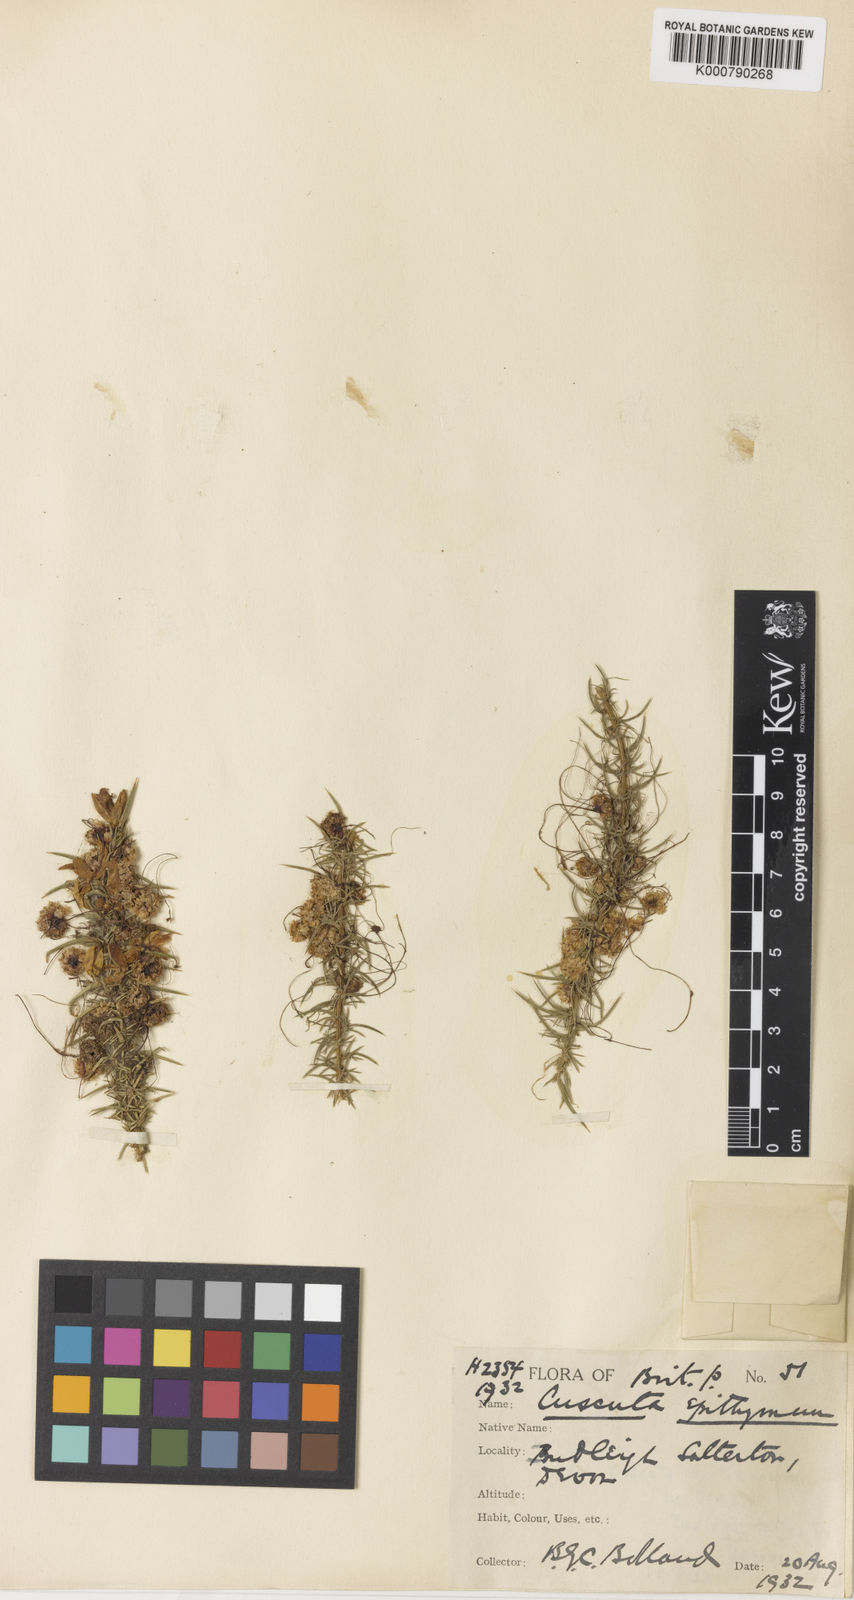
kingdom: Plantae
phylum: Tracheophyta
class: Magnoliopsida
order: Solanales
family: Convolvulaceae
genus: Cuscuta
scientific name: Cuscuta epithymum
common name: Clover dodder
